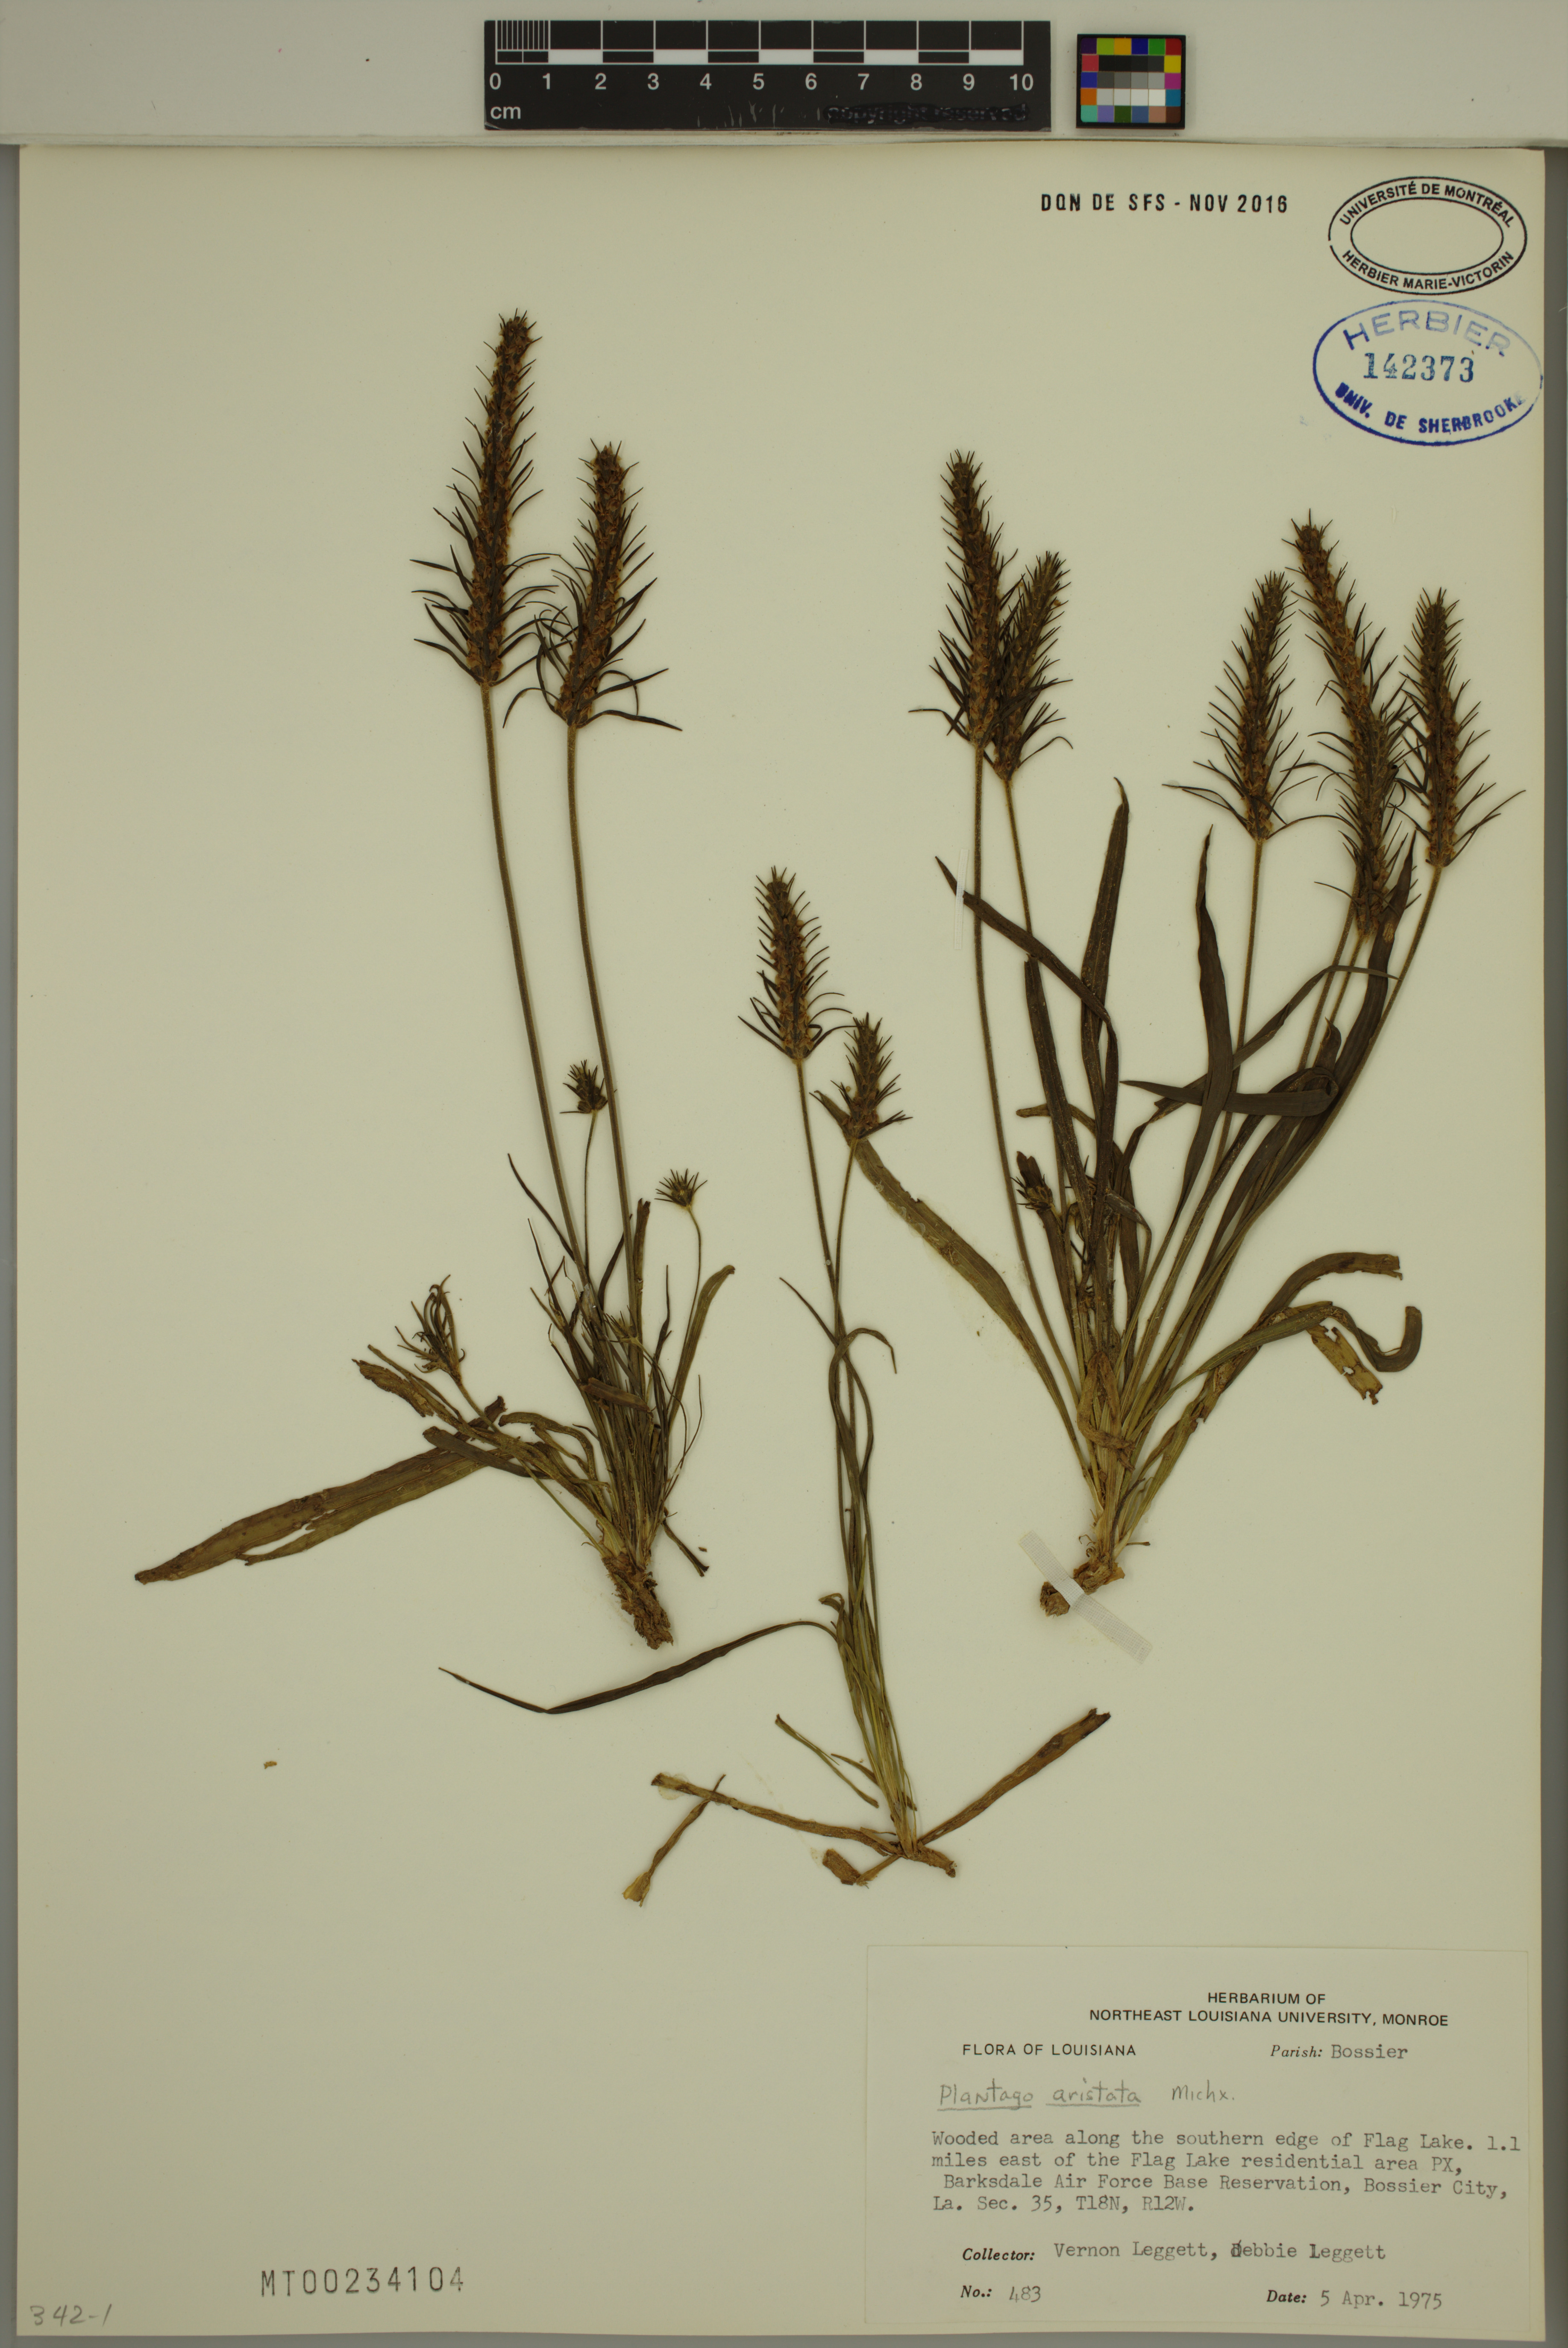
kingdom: Plantae
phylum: Tracheophyta
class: Magnoliopsida
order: Lamiales
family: Plantaginaceae
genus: Plantago
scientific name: Plantago aristata
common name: Bracted plantain
